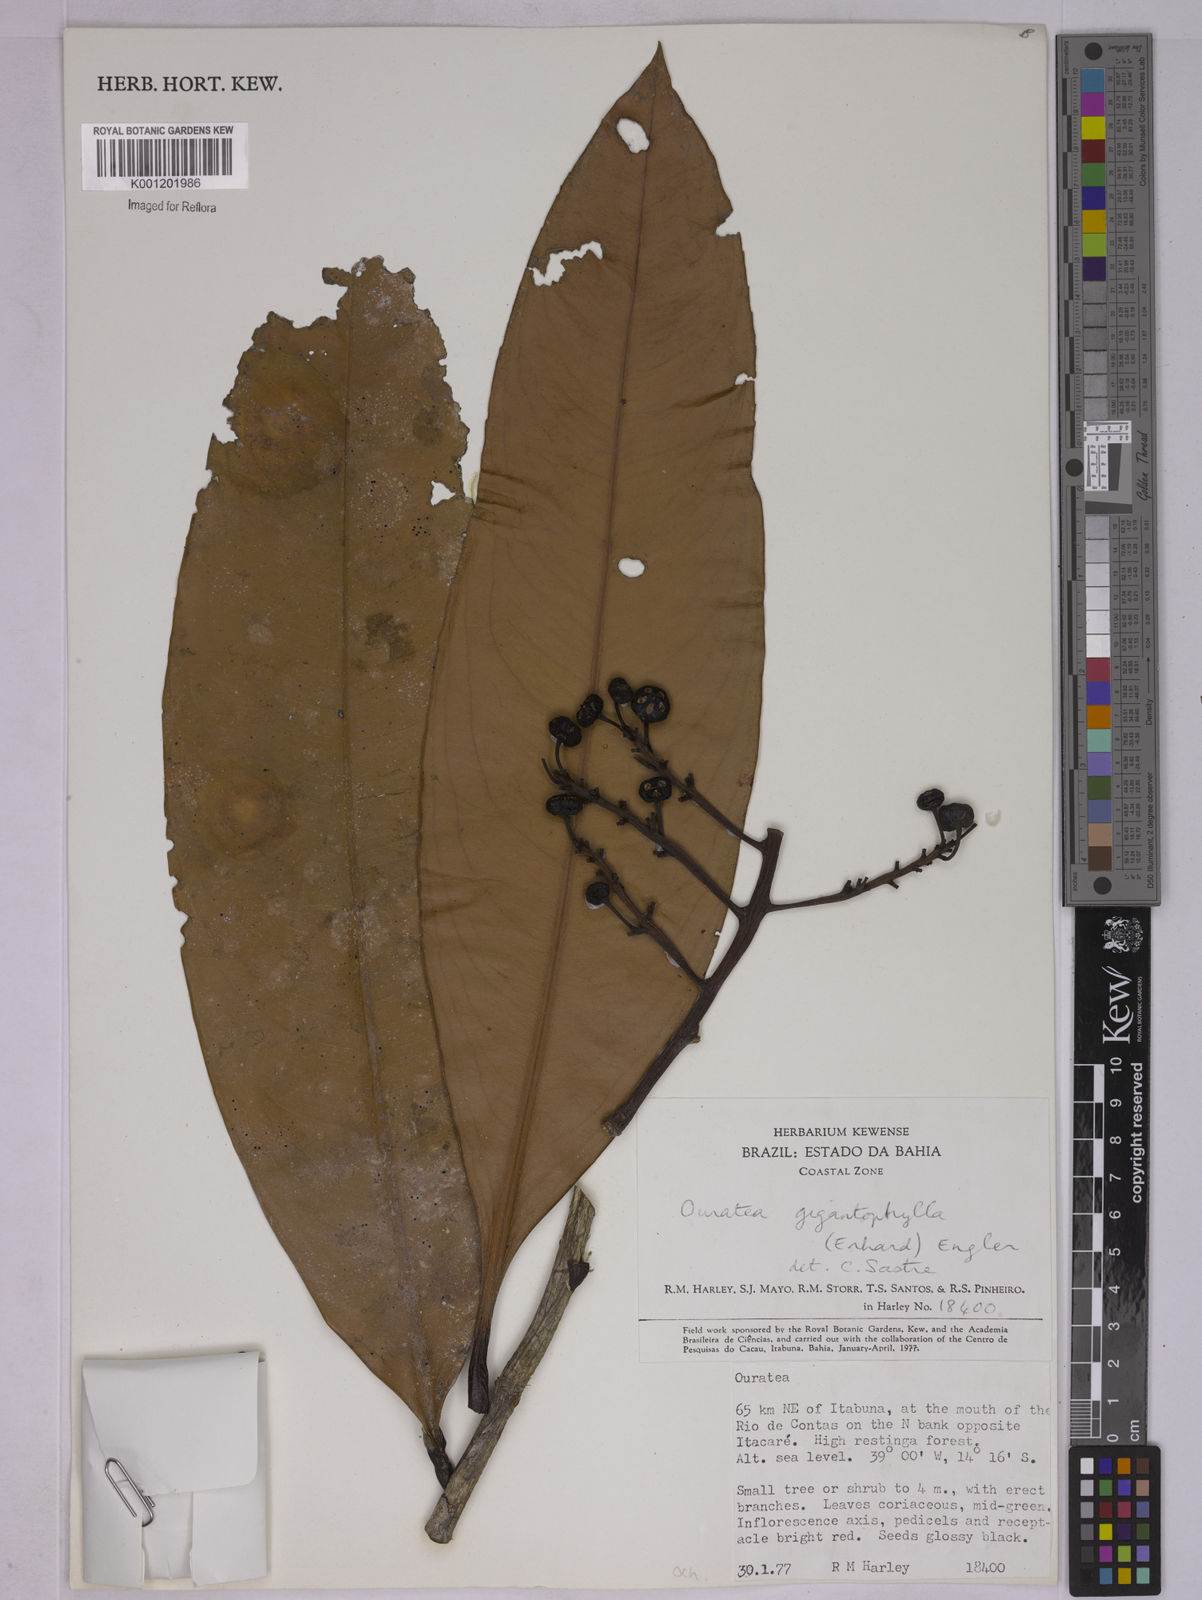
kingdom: Plantae
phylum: Tracheophyta
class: Magnoliopsida
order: Malpighiales
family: Ochnaceae
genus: Ouratea
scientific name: Ouratea gigantophylla
